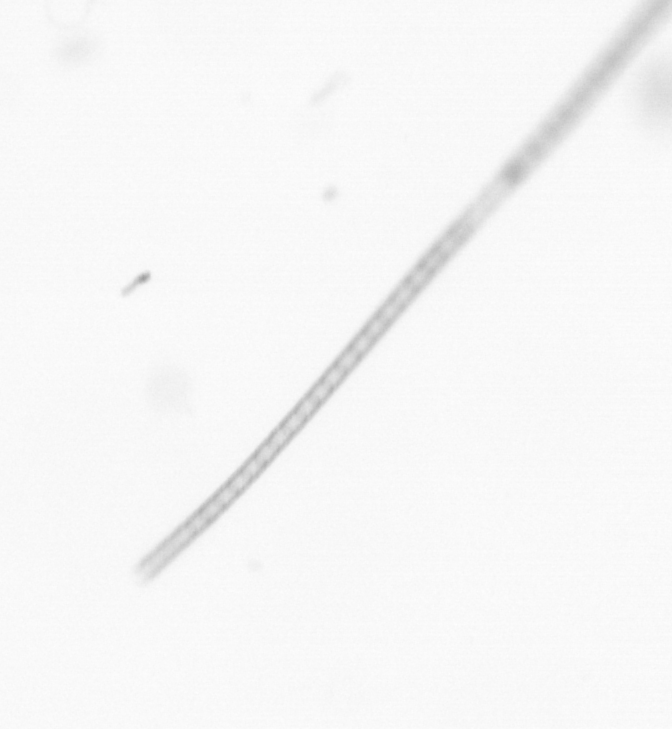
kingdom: Chromista
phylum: Ochrophyta
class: Bacillariophyceae
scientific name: Bacillariophyceae
